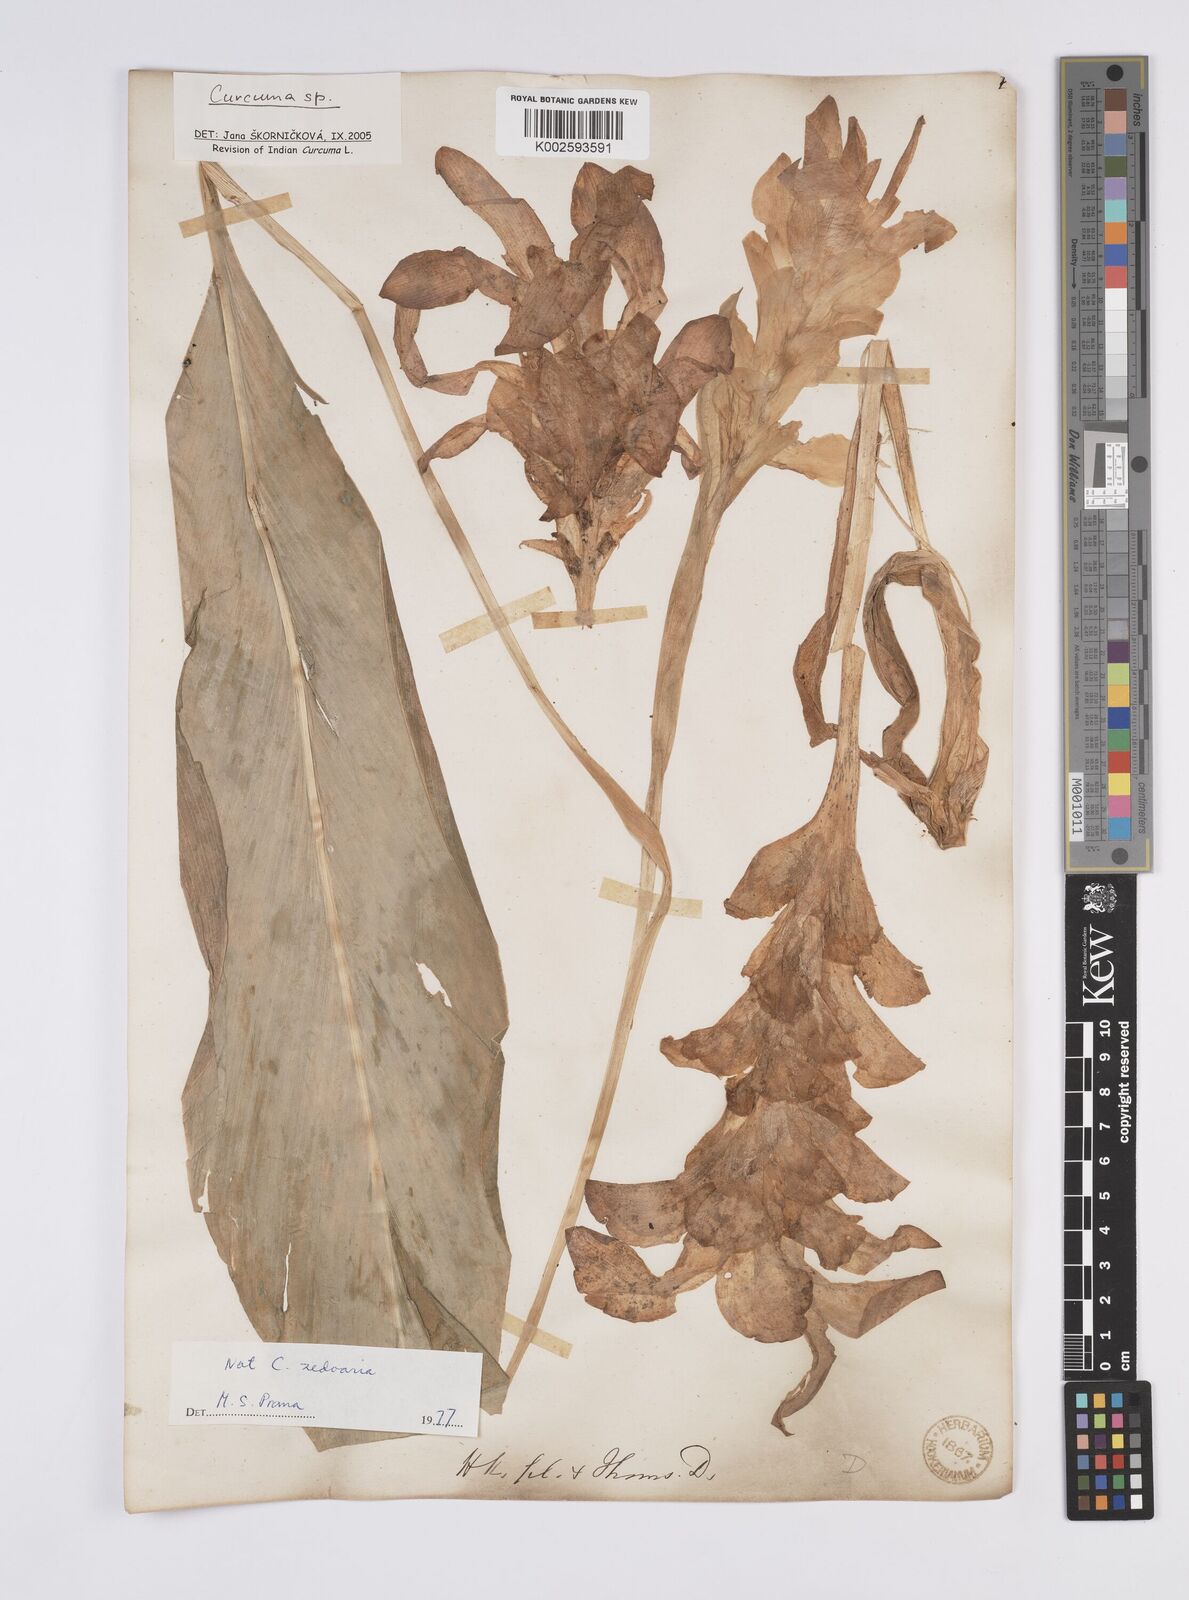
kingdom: Plantae
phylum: Tracheophyta
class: Liliopsida
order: Zingiberales
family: Zingiberaceae
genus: Curcuma
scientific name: Curcuma aromatica
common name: Wild turmeric
